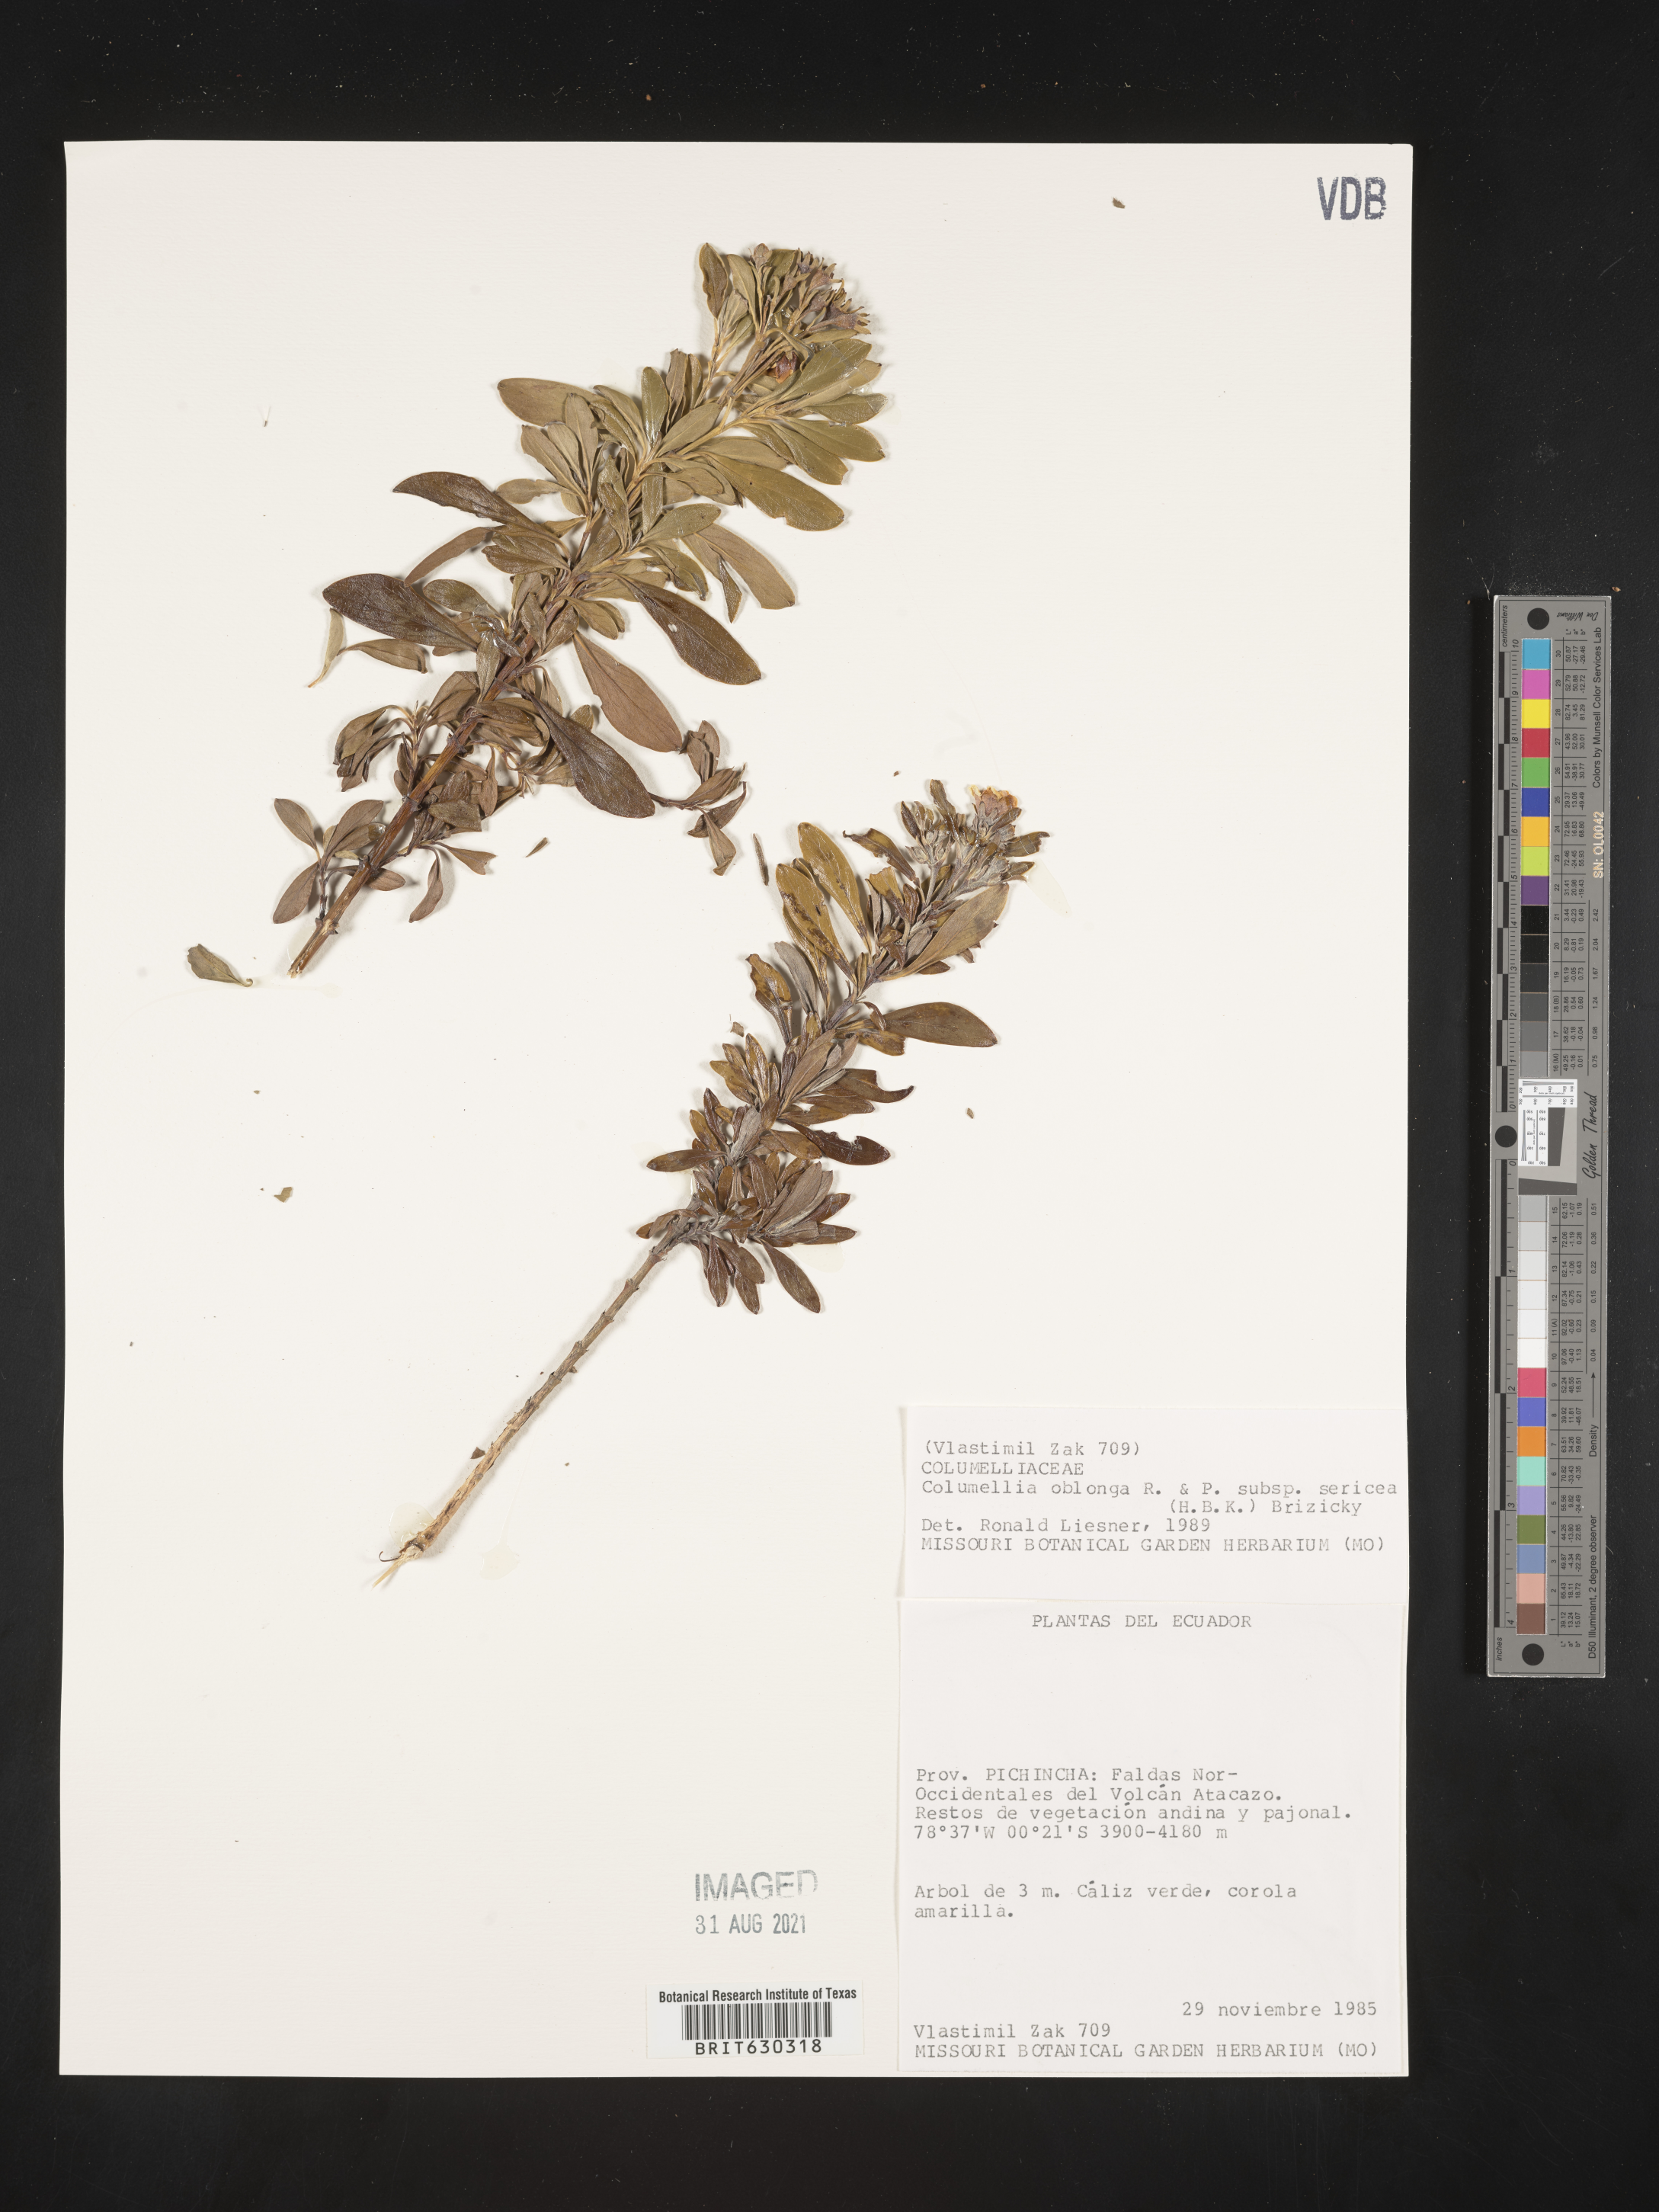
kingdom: Plantae
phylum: Tracheophyta
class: Magnoliopsida
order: Bruniales
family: Columelliaceae
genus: Columellia
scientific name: Columellia oblonga
